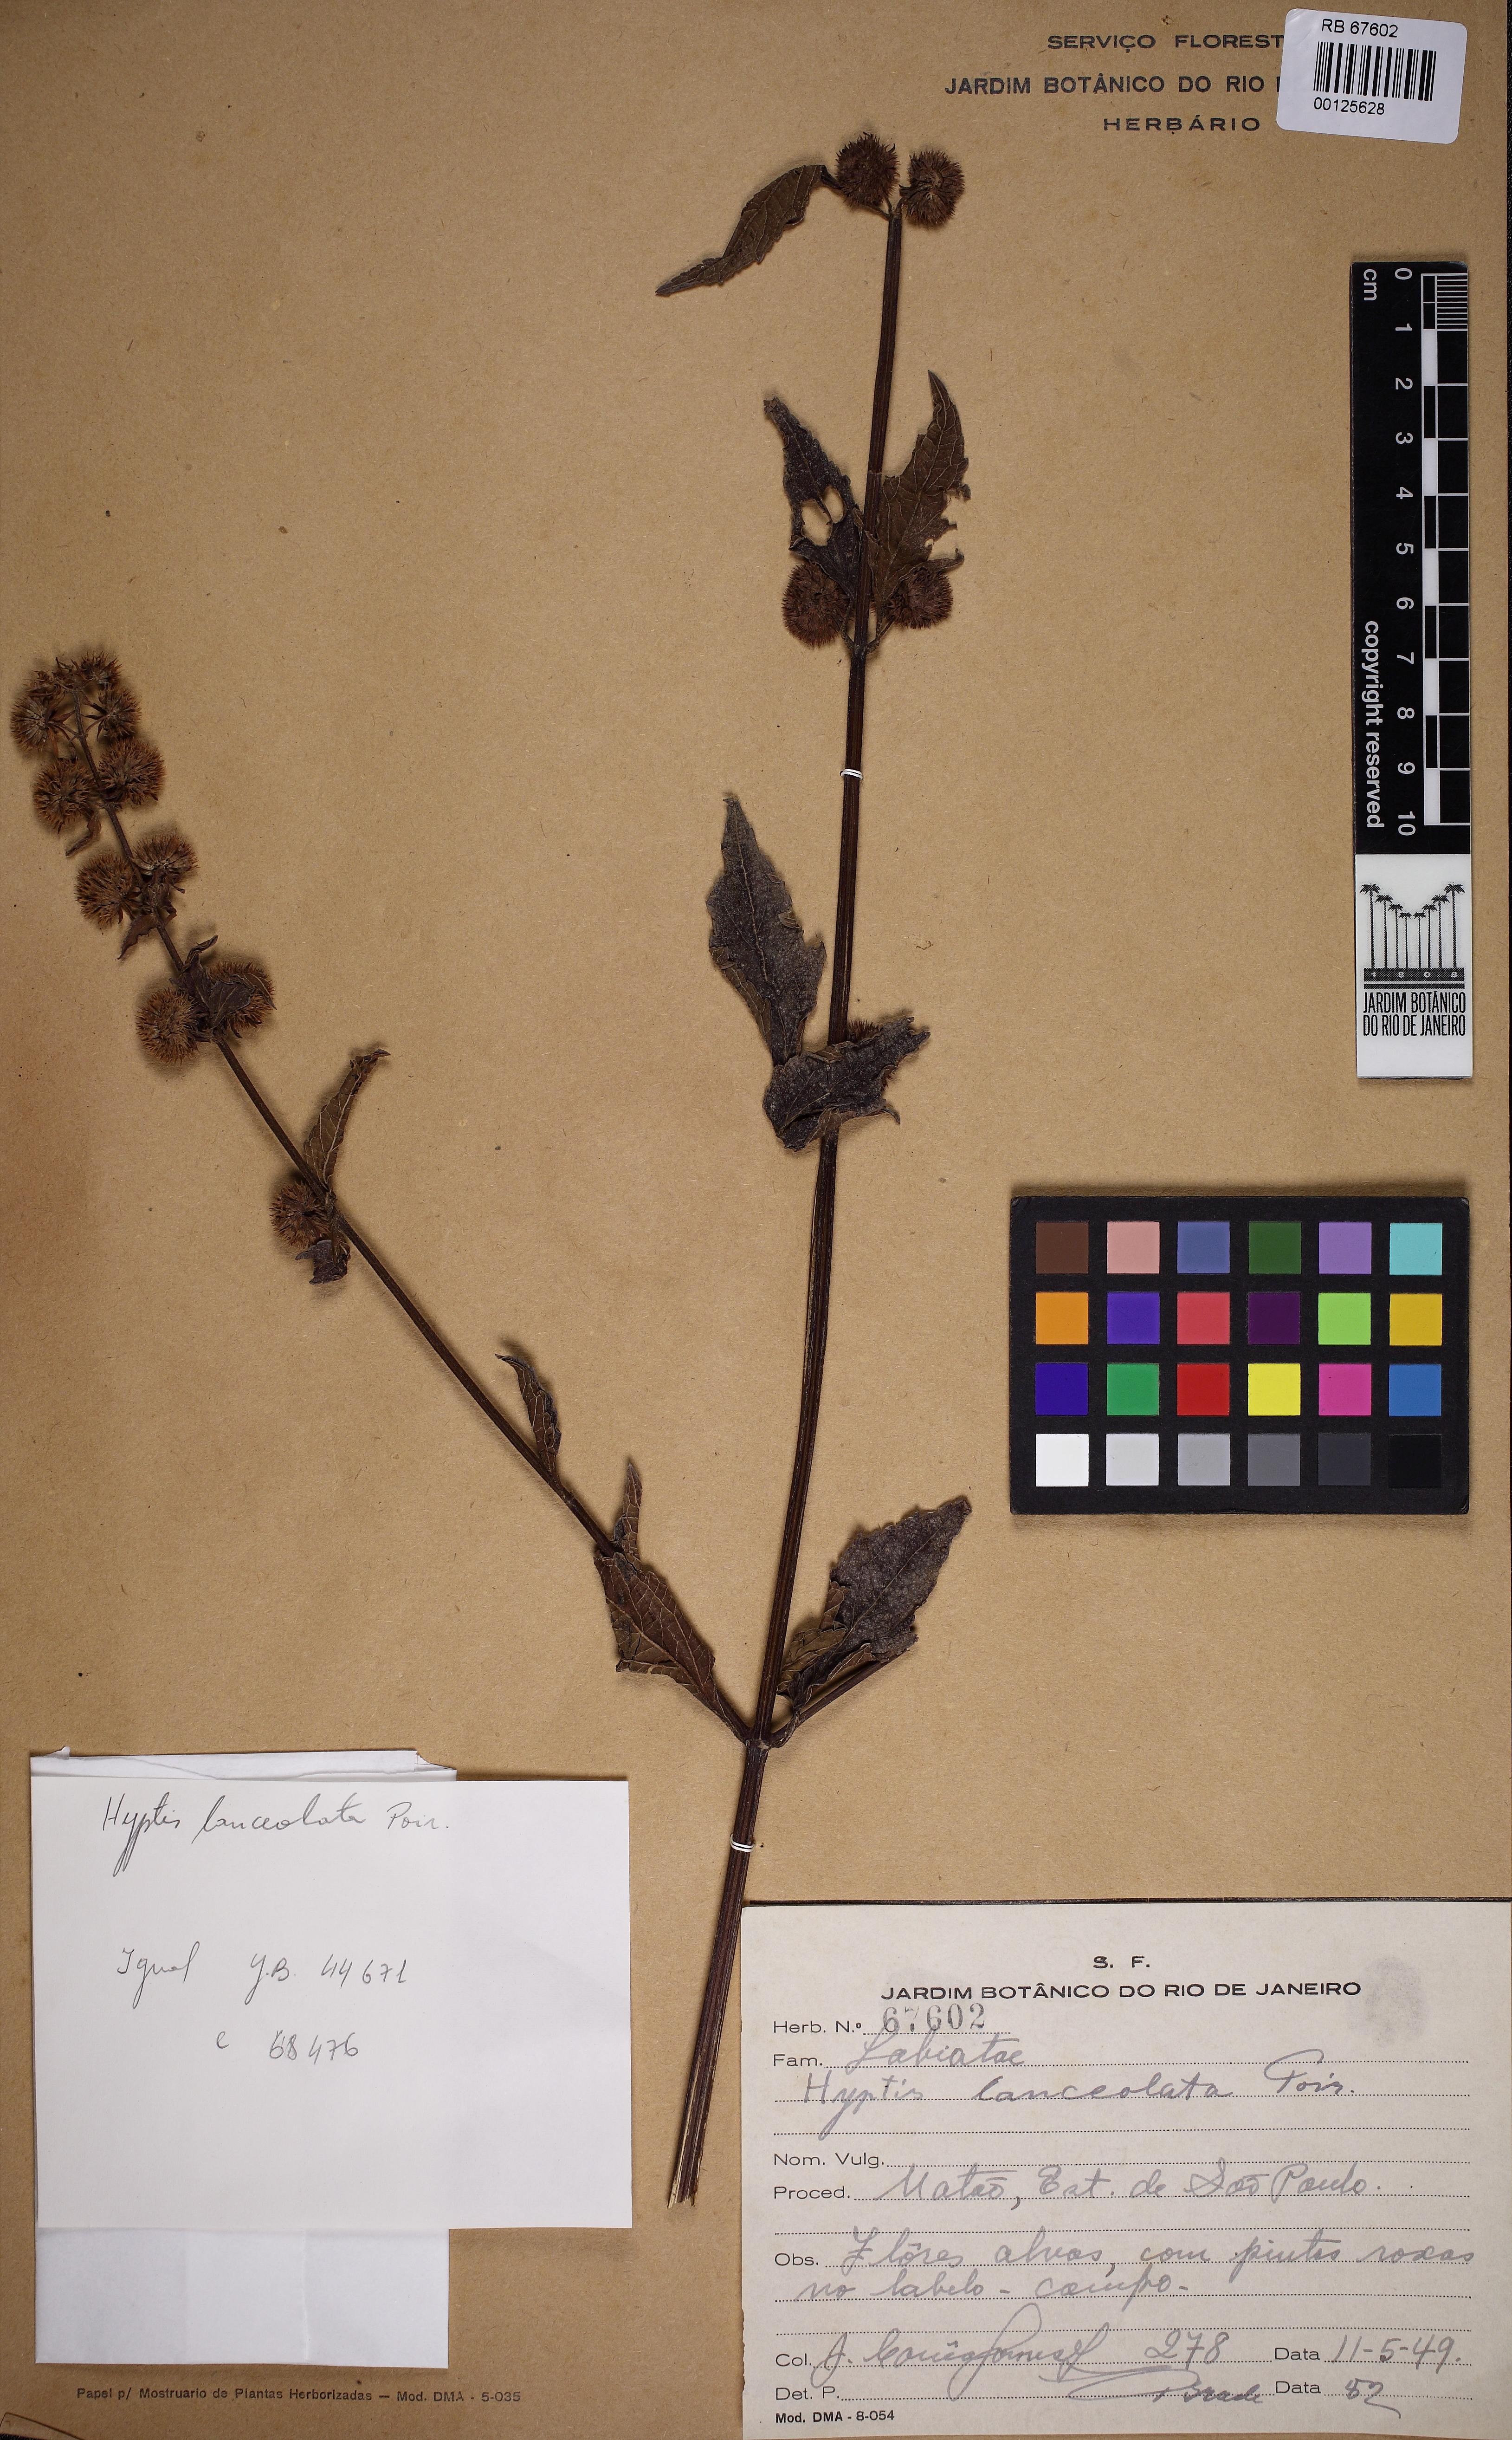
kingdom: Plantae
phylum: Tracheophyta
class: Magnoliopsida
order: Lamiales
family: Lamiaceae
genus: Hyptis
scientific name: Hyptis lanceolata
